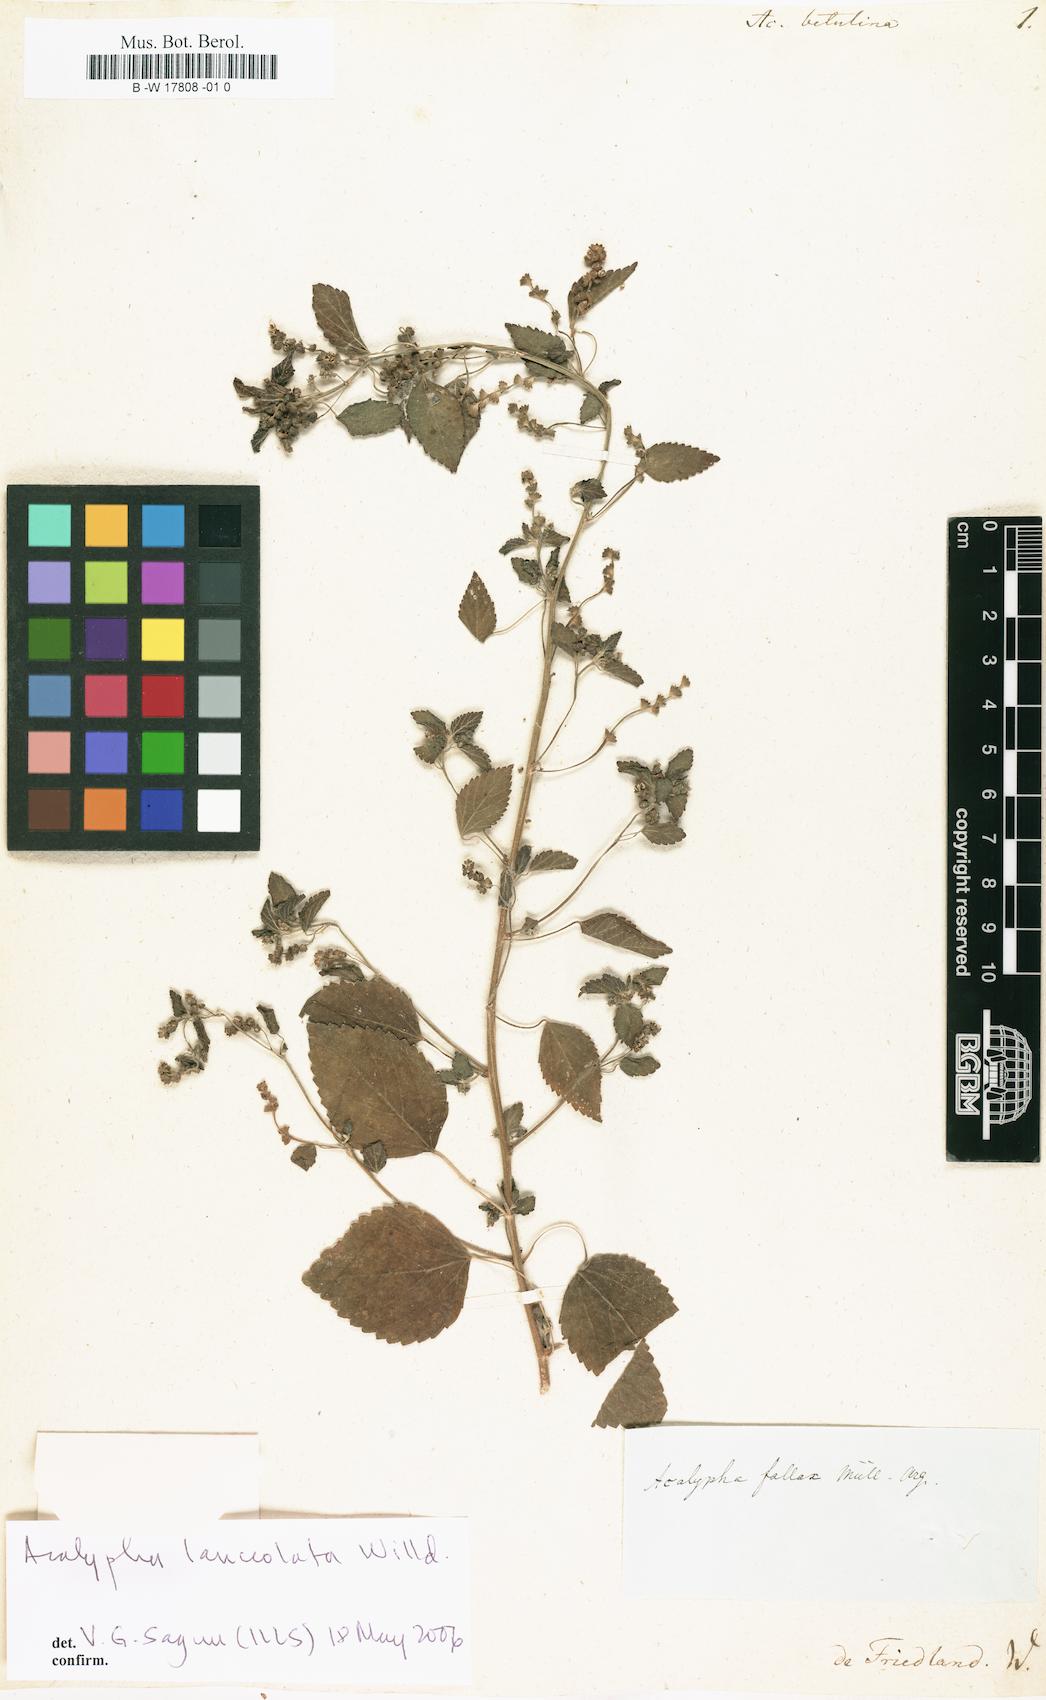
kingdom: Plantae
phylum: Tracheophyta
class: Magnoliopsida
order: Malpighiales
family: Euphorbiaceae
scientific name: Euphorbiaceae
